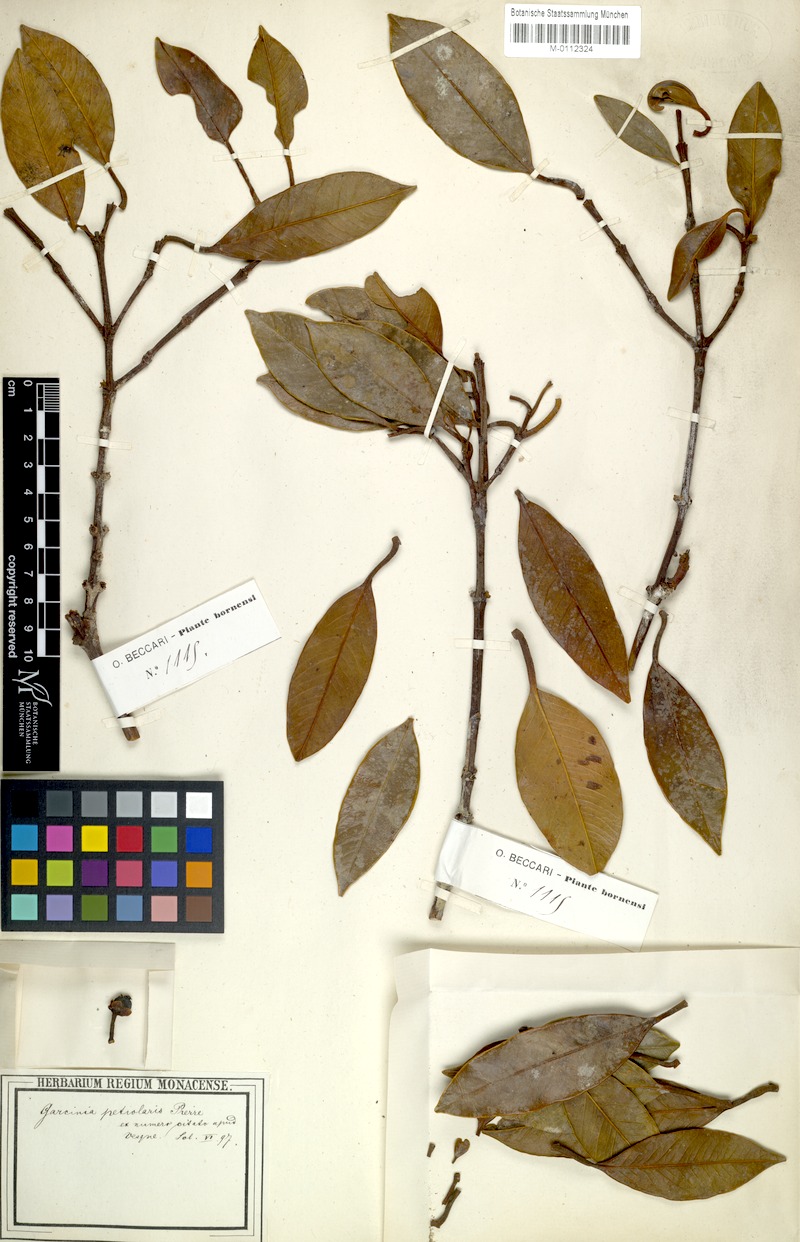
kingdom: Plantae
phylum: Tracheophyta
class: Magnoliopsida
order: Malpighiales
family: Clusiaceae
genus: Garcinia
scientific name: Garcinia petiolaris
